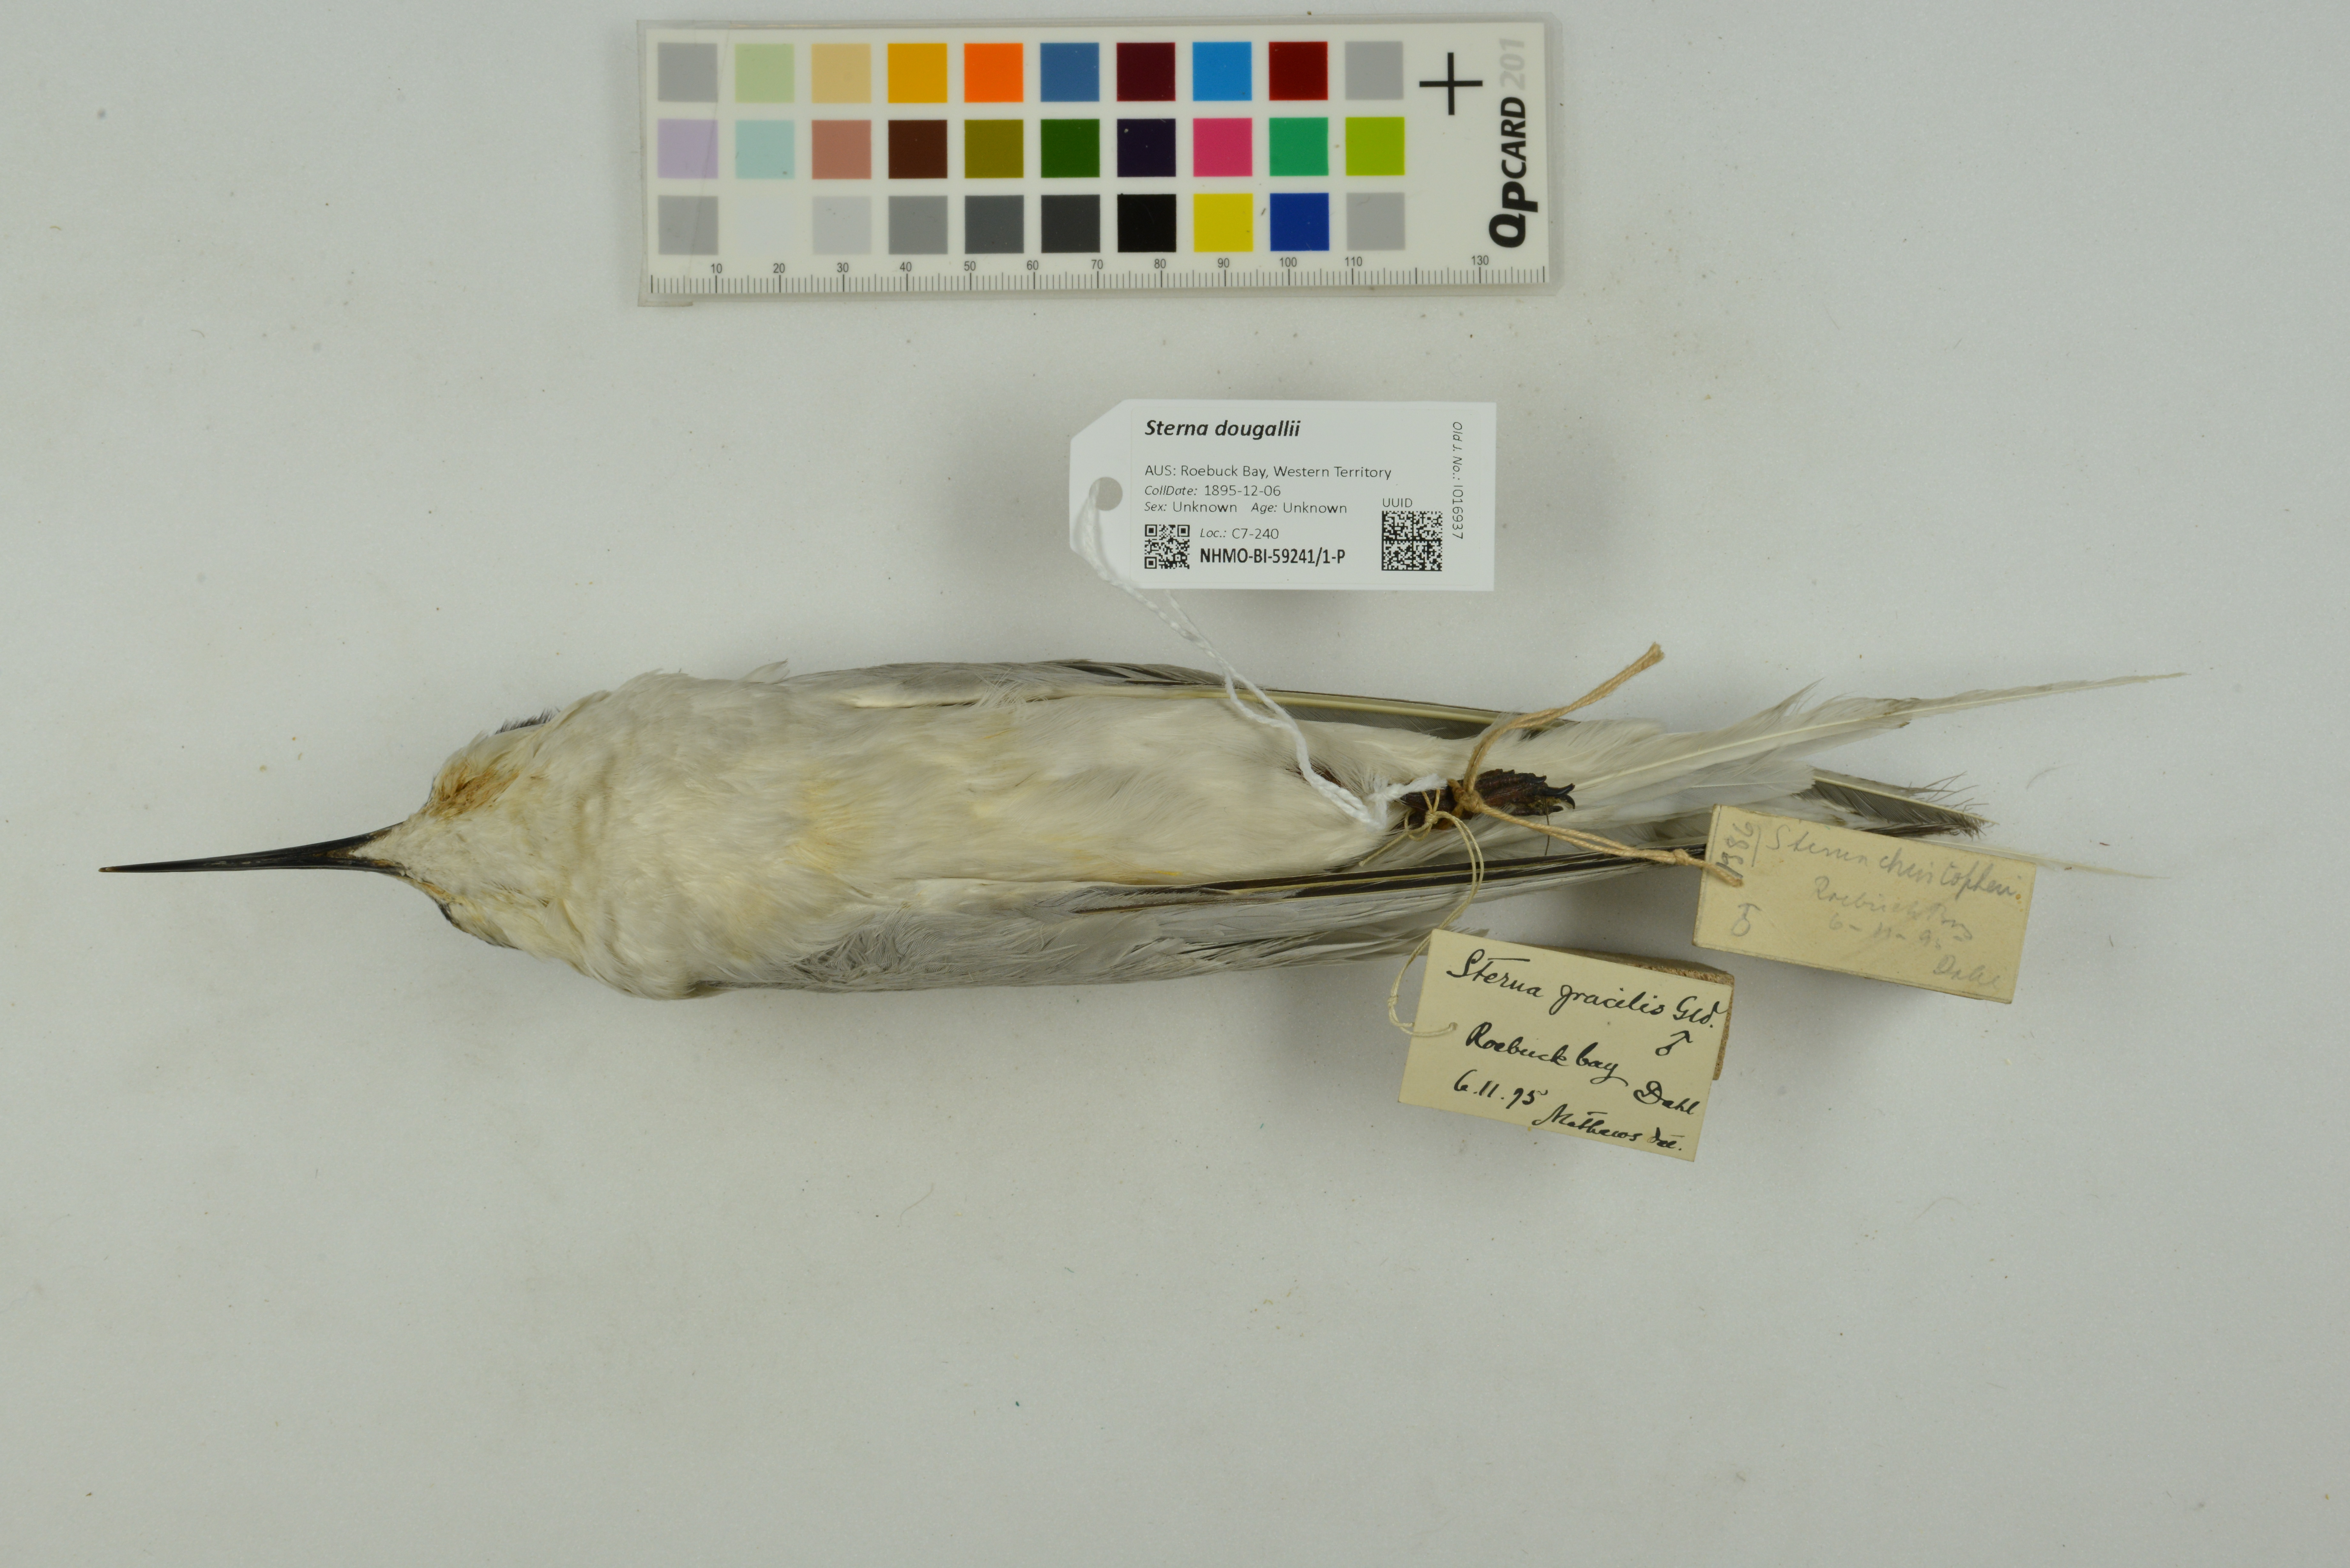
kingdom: Animalia
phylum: Chordata
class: Aves
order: Charadriiformes
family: Laridae
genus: Sterna
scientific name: Sterna dougallii
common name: Roseate tern
